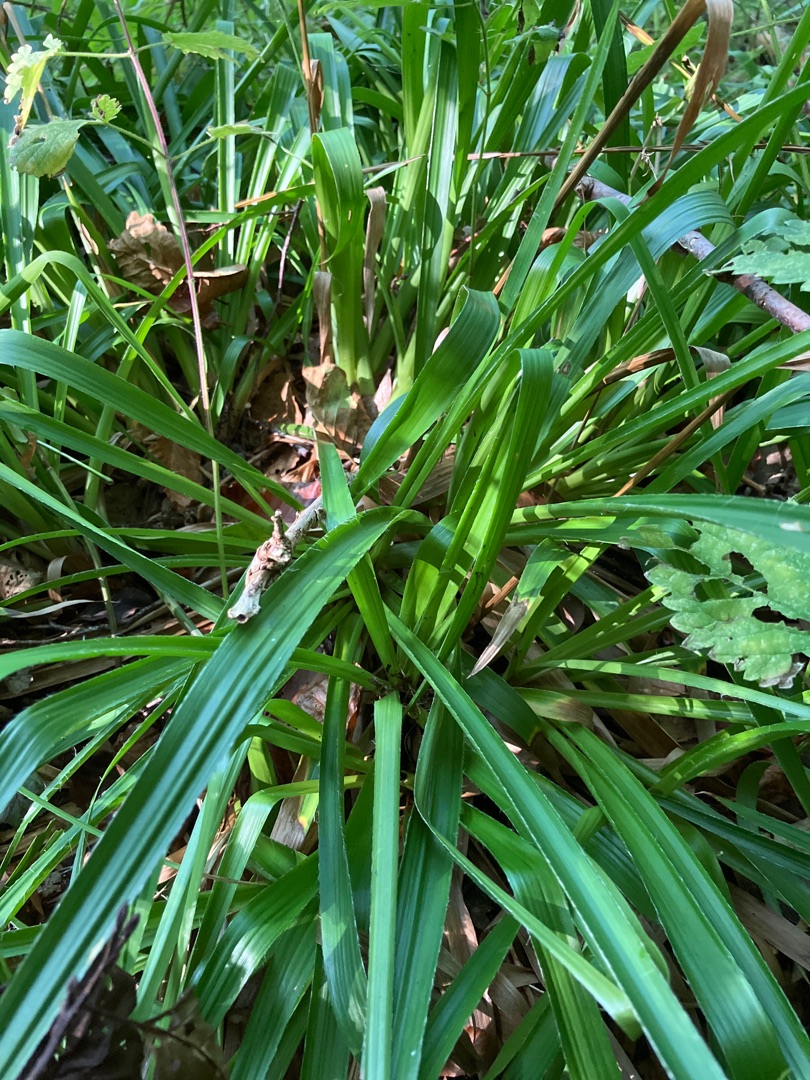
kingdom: Plantae
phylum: Tracheophyta
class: Liliopsida
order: Poales
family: Juncaceae
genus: Luzula
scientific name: Luzula sylvatica
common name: Stor frytle
